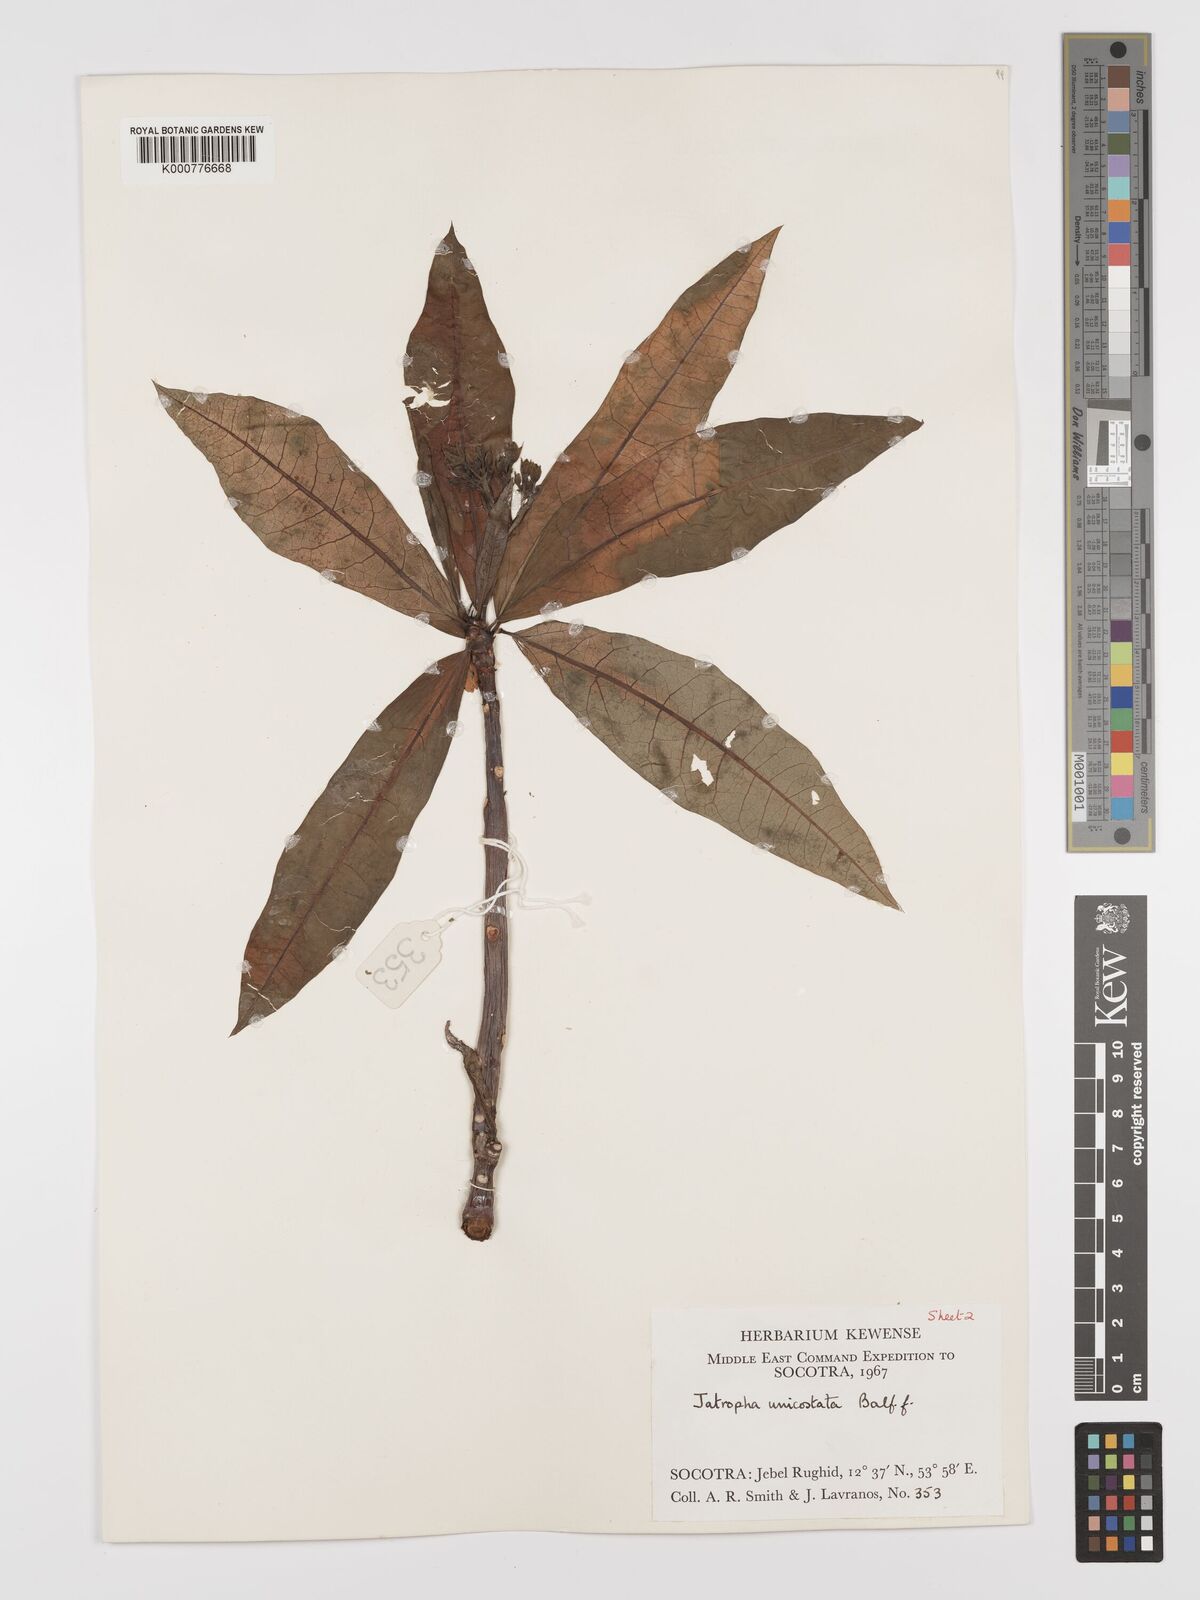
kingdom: Plantae
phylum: Tracheophyta
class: Magnoliopsida
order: Malpighiales
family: Euphorbiaceae
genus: Jatropha
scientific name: Jatropha unicostata
